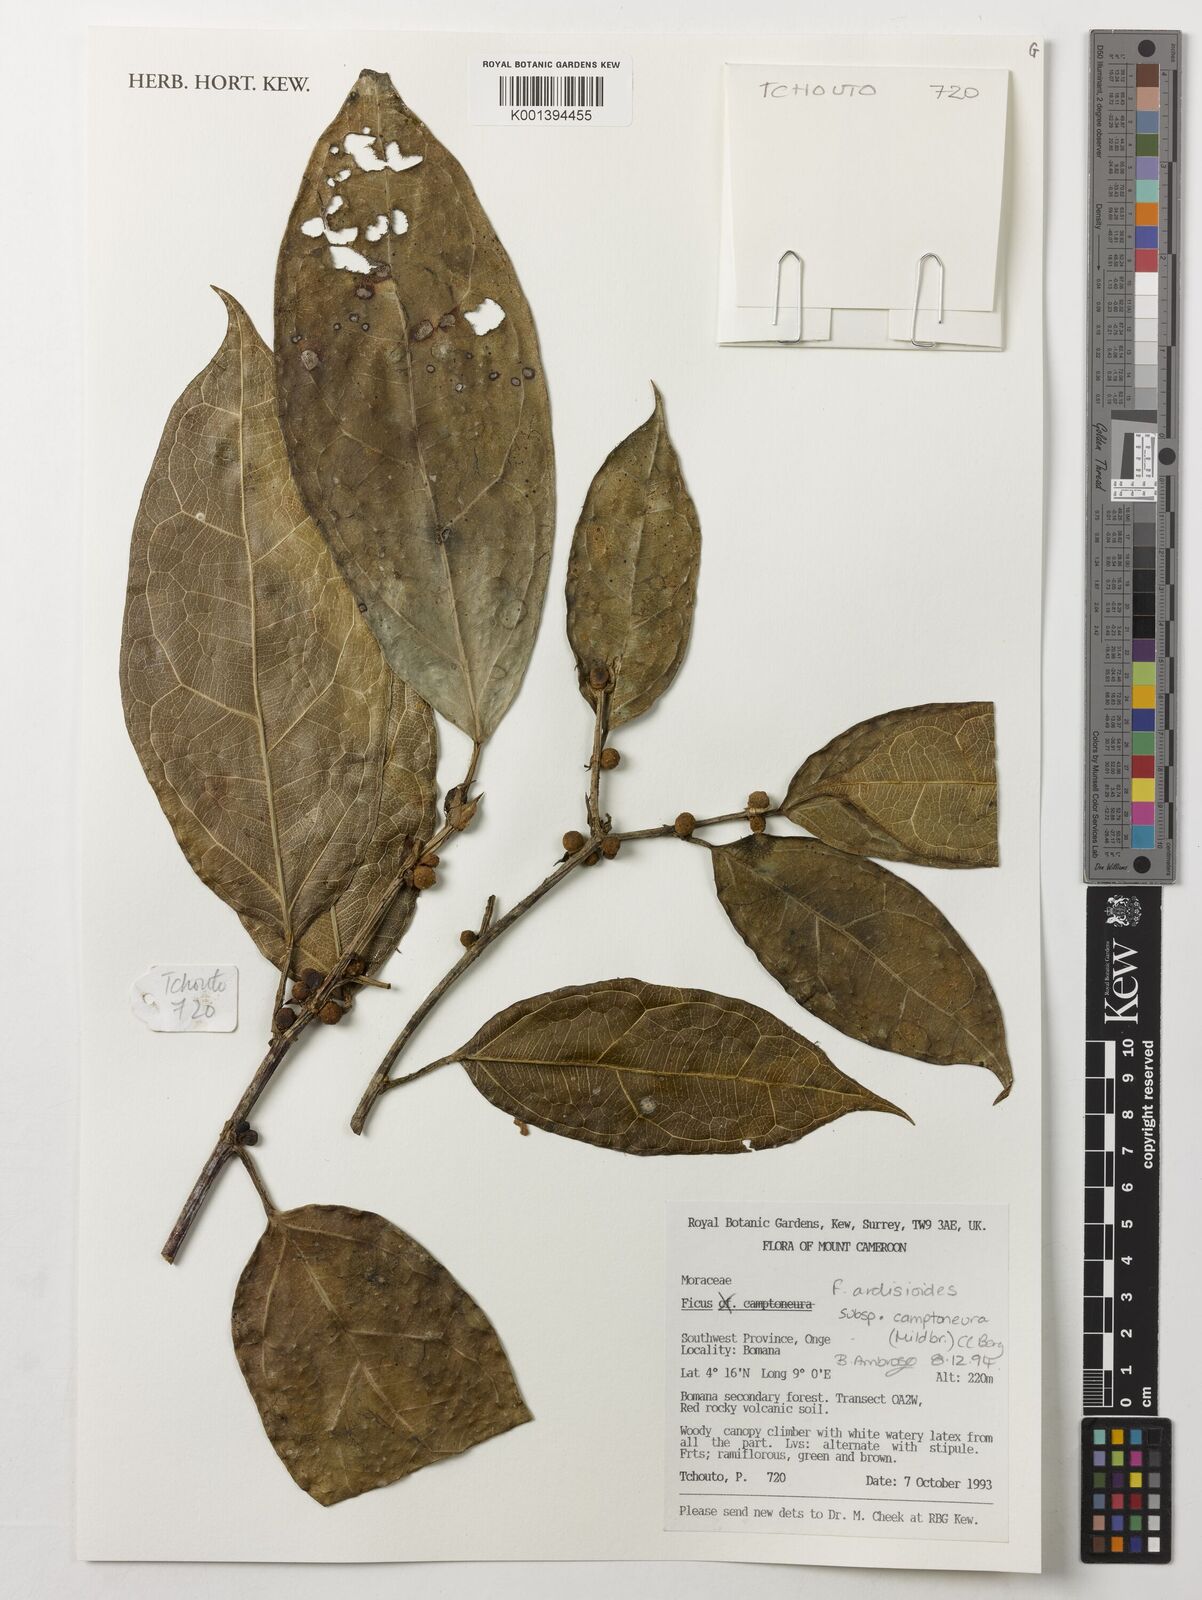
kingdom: Plantae
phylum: Tracheophyta
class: Magnoliopsida
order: Rosales
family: Moraceae
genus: Ficus
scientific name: Ficus ardisioides
